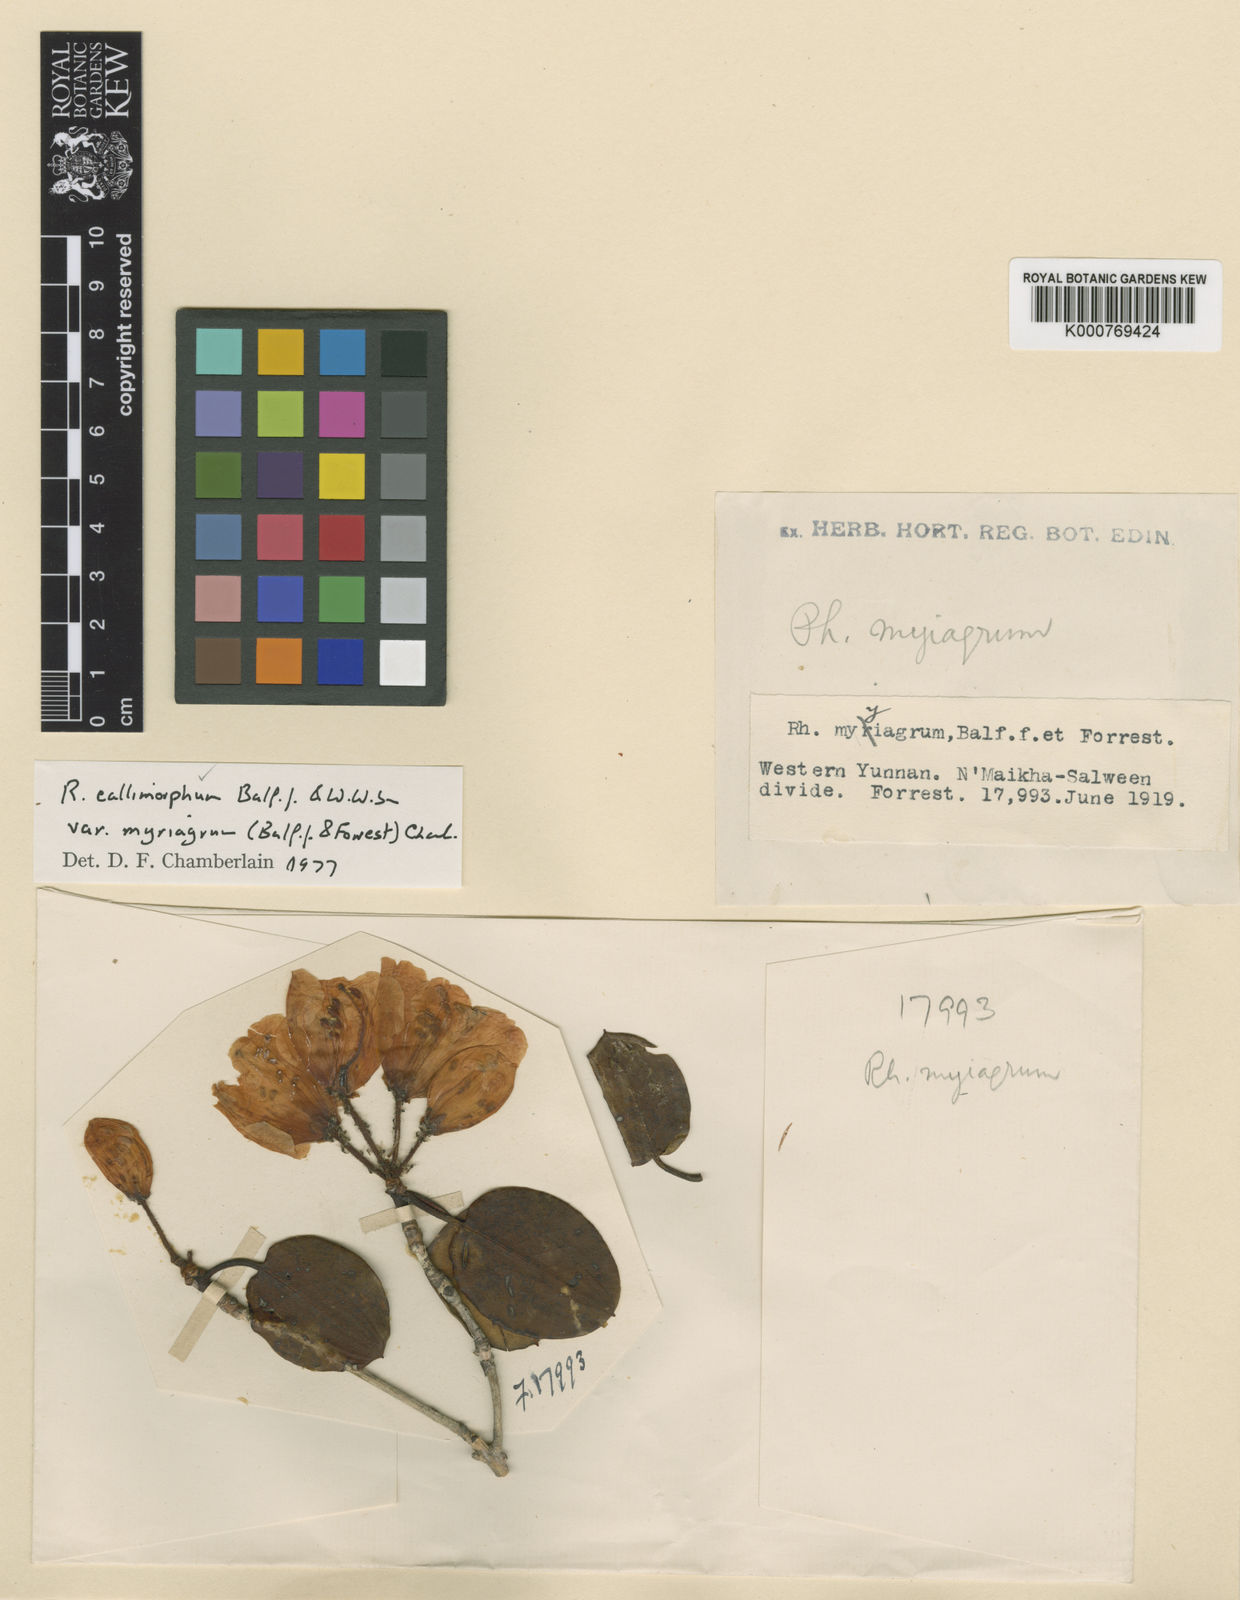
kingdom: Plantae
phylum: Tracheophyta
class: Magnoliopsida
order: Ericales
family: Ericaceae
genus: Rhododendron
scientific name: Rhododendron callimorphum
